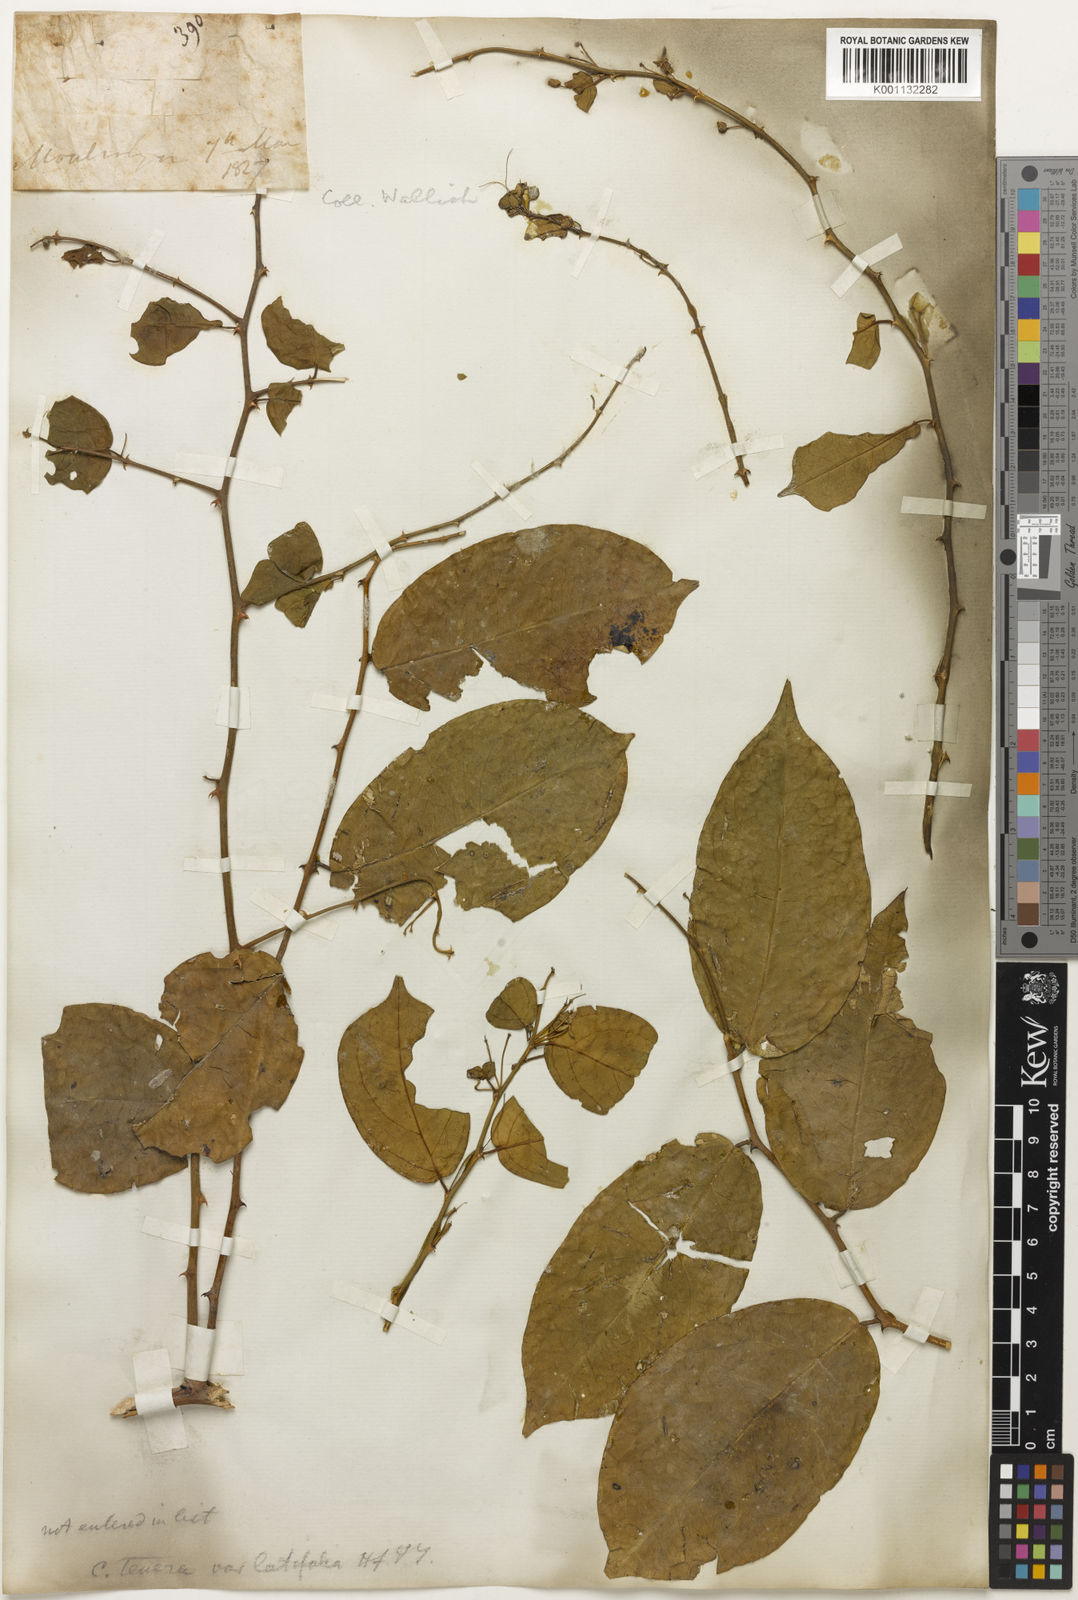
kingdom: Plantae
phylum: Tracheophyta
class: Magnoliopsida
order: Brassicales
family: Capparaceae
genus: Capparis
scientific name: Capparis
